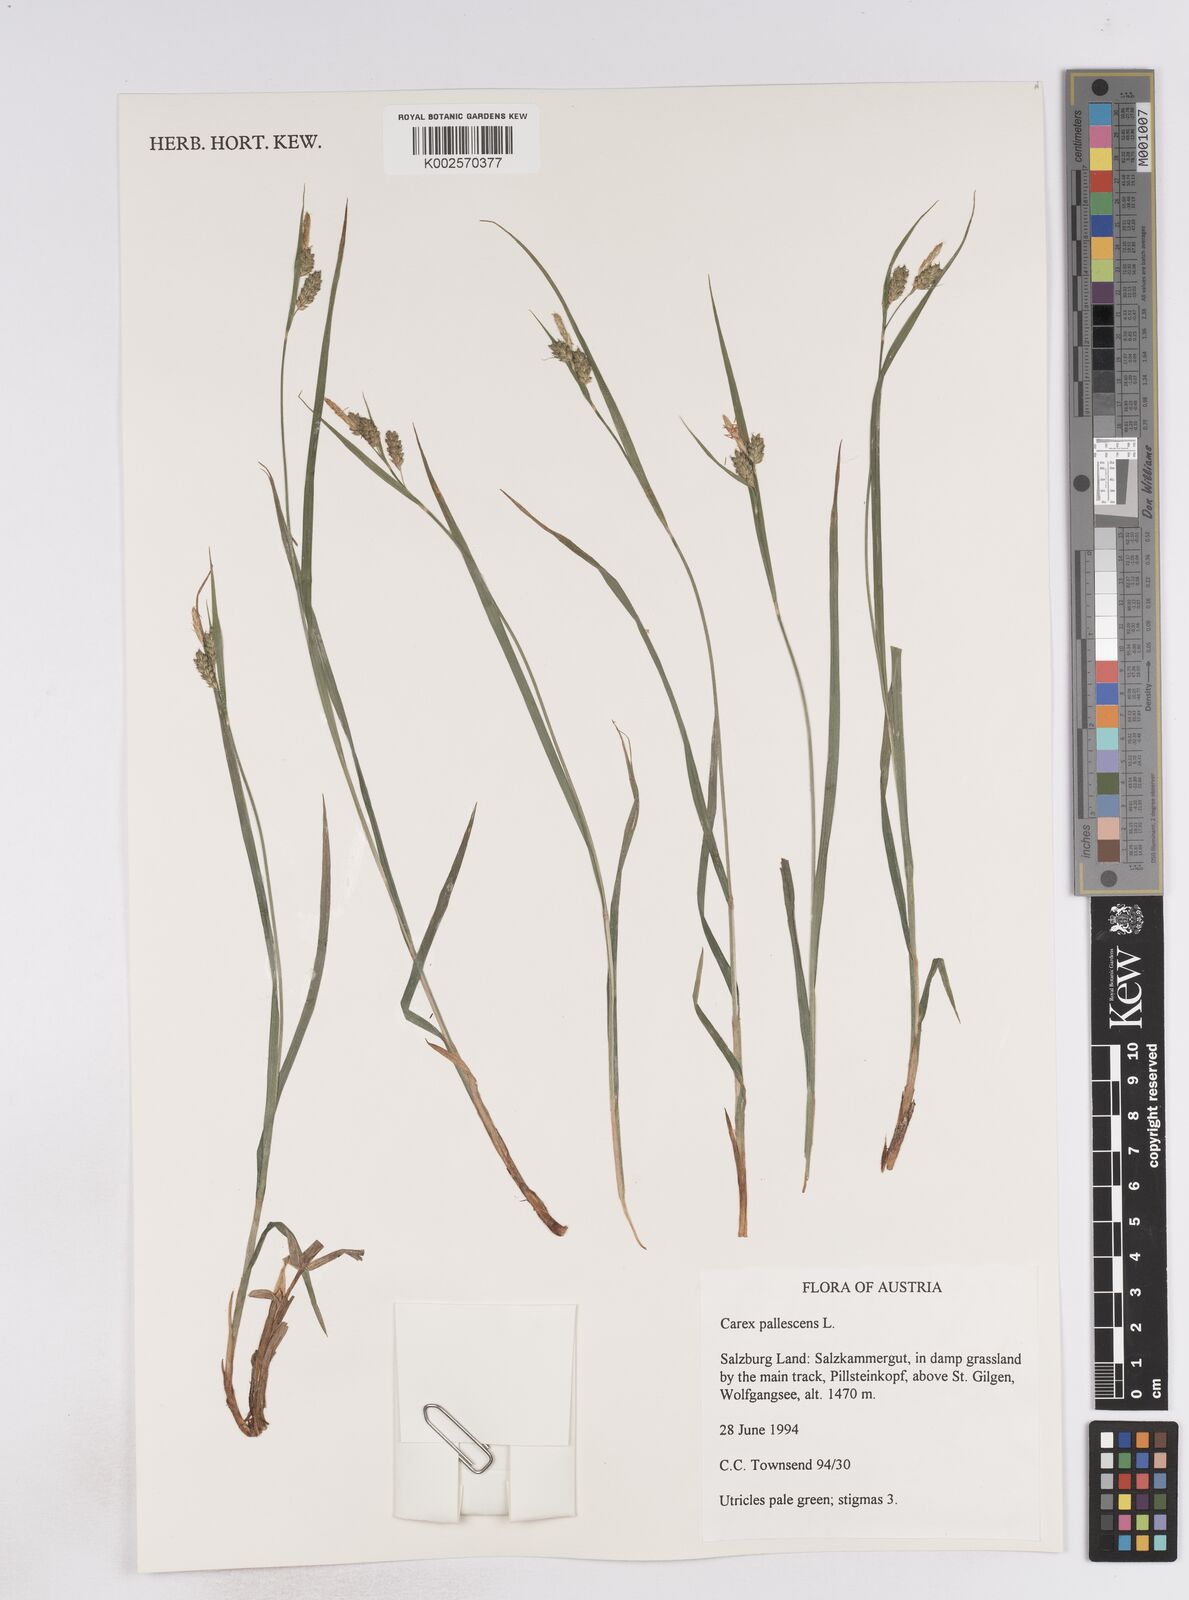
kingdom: Plantae
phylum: Tracheophyta
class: Liliopsida
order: Poales
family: Cyperaceae
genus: Carex
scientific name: Carex pallescens
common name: Pale sedge
